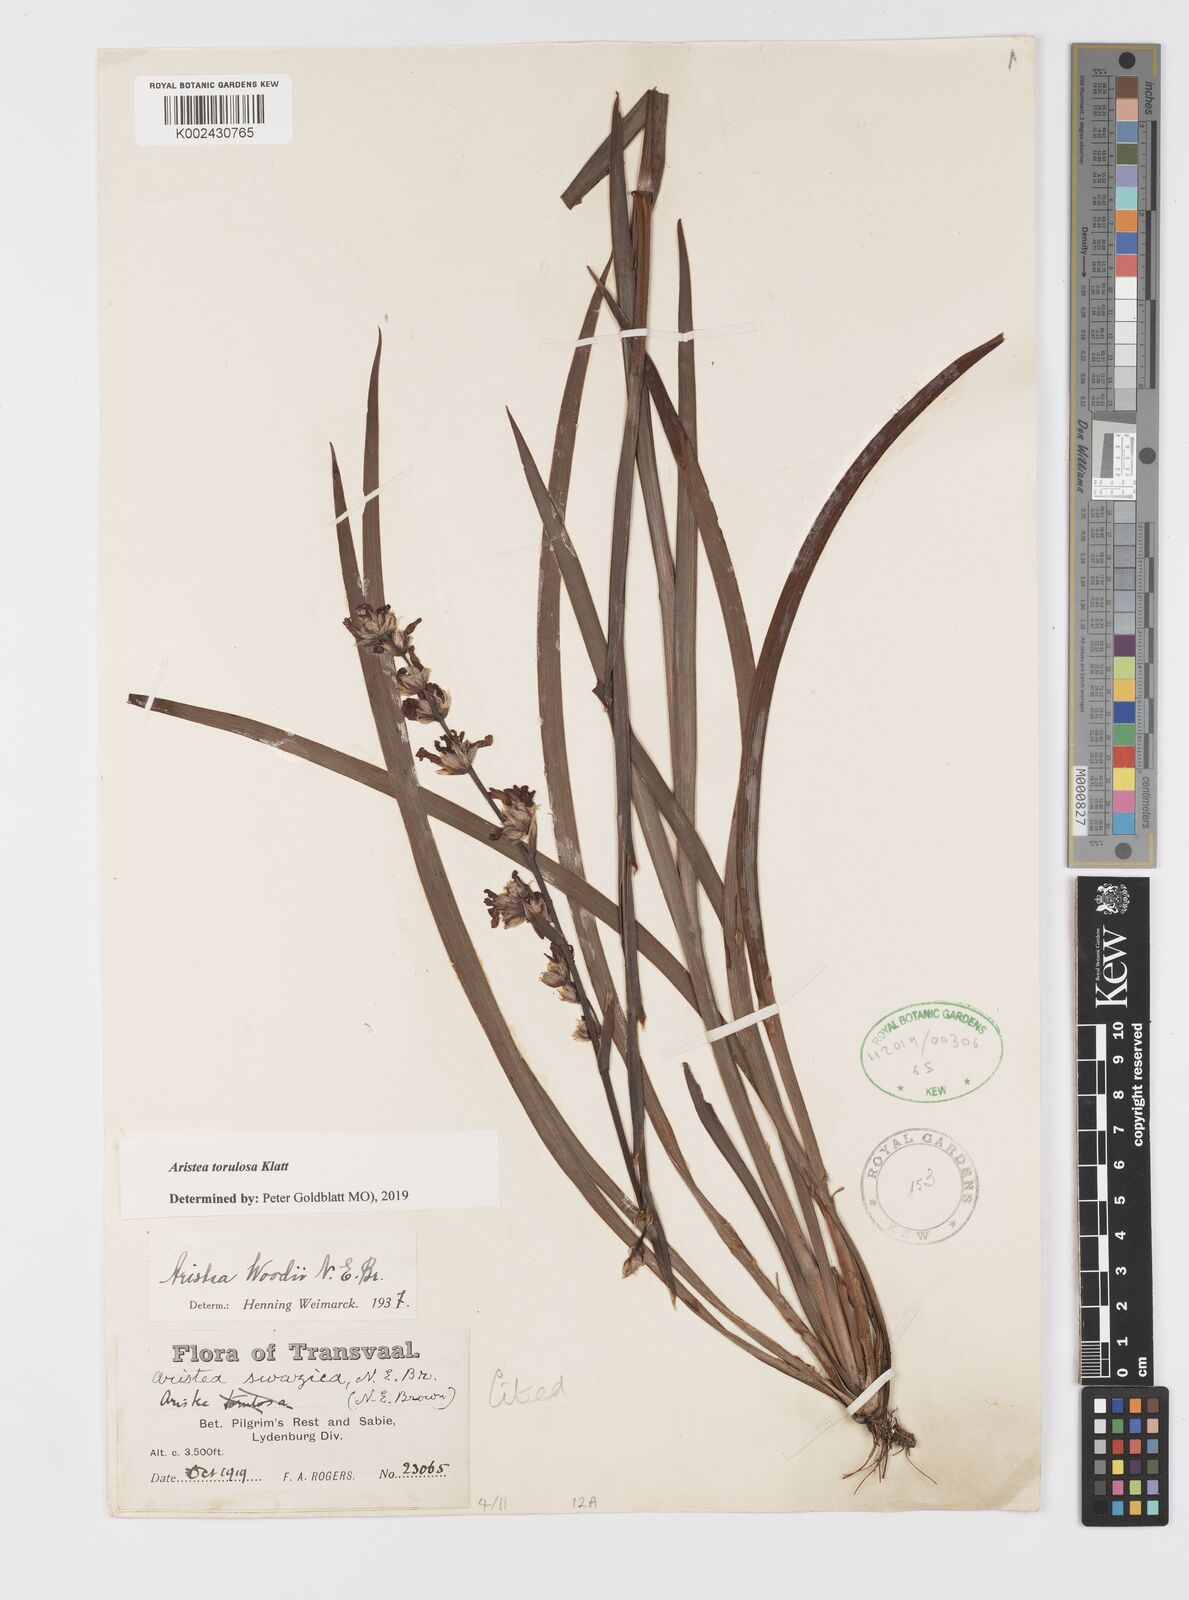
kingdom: Plantae
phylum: Tracheophyta
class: Liliopsida
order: Asparagales
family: Iridaceae
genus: Aristea
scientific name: Aristea torulosa
